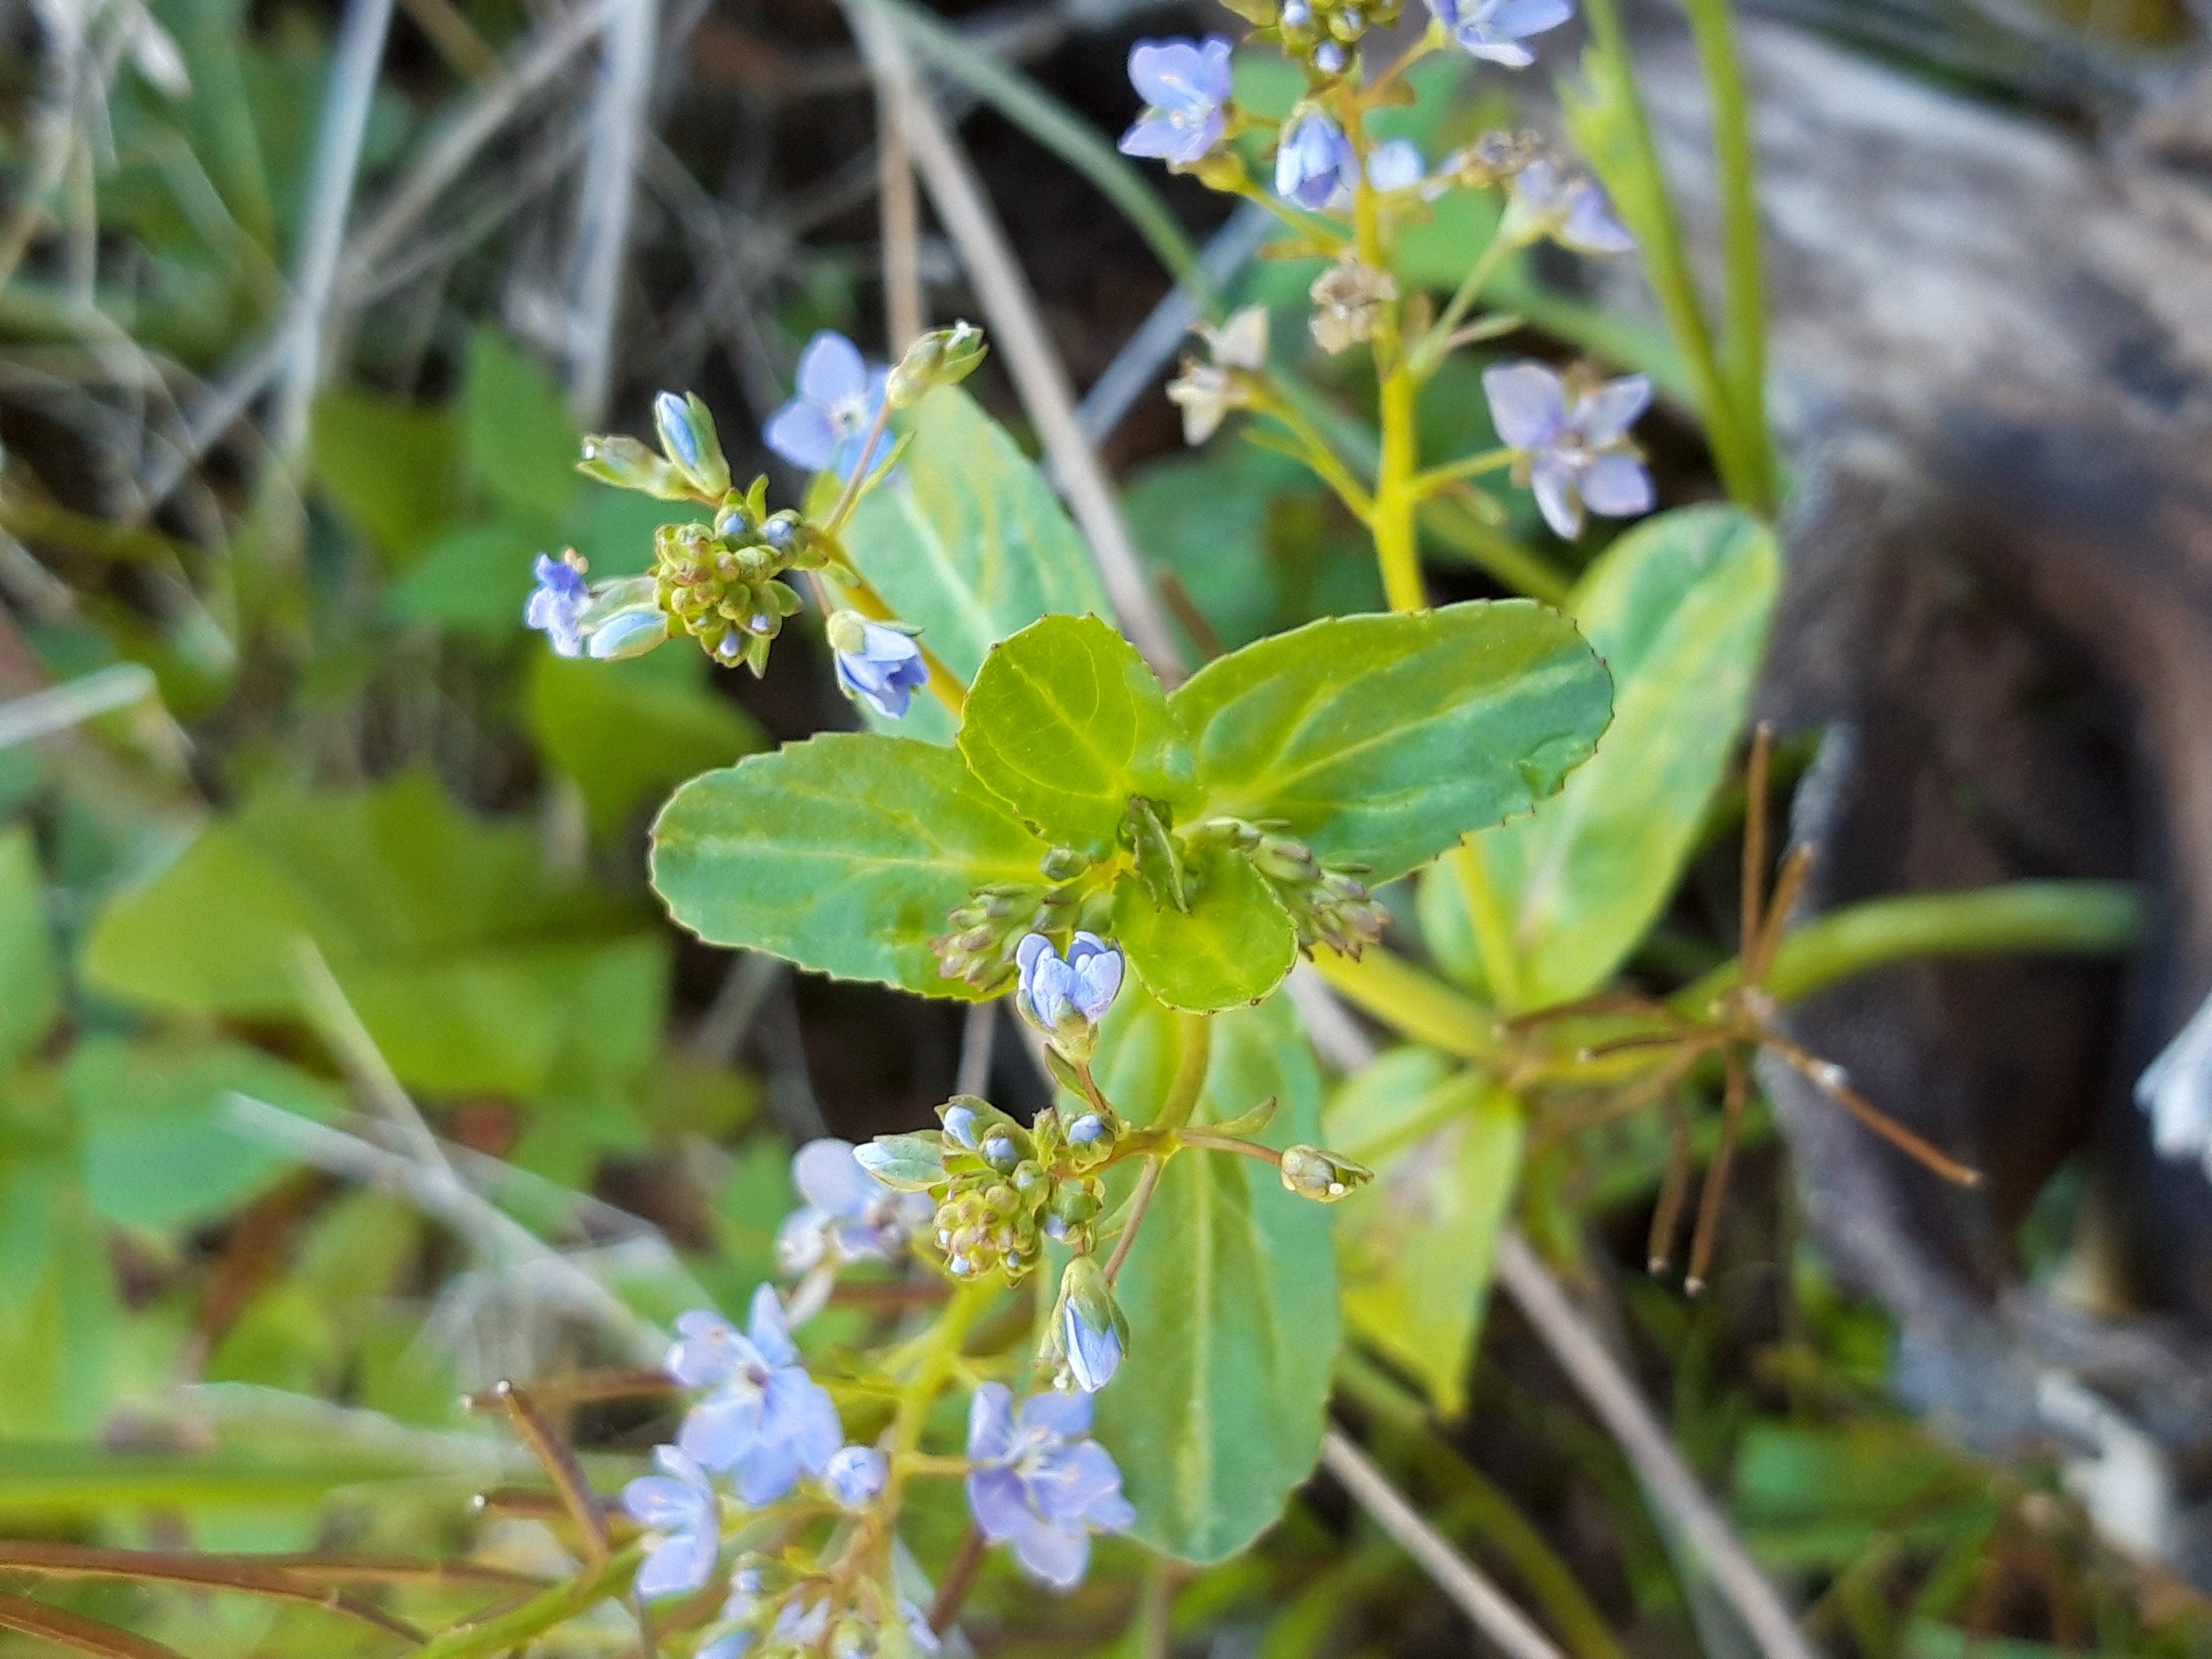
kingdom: Plantae
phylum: Tracheophyta
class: Magnoliopsida
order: Lamiales
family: Plantaginaceae
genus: Veronica
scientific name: Veronica beccabunga
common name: Tykbladet ærenpris
